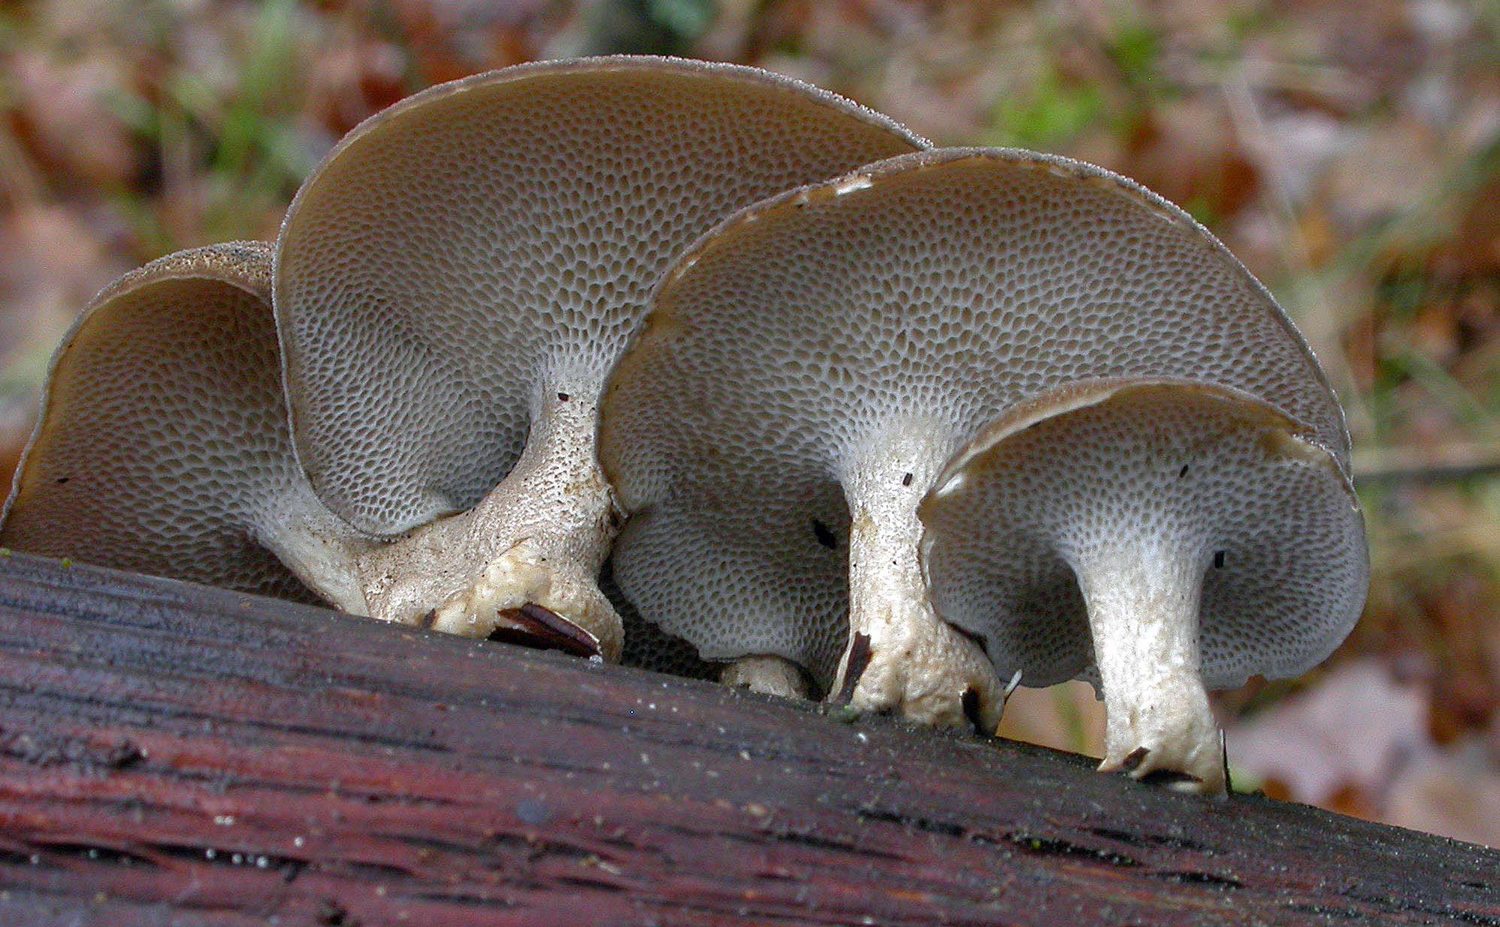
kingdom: Fungi
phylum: Basidiomycota
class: Agaricomycetes
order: Polyporales
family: Polyporaceae
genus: Lentinus
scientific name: Lentinus brumalis
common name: vinter-stilkporesvamp
